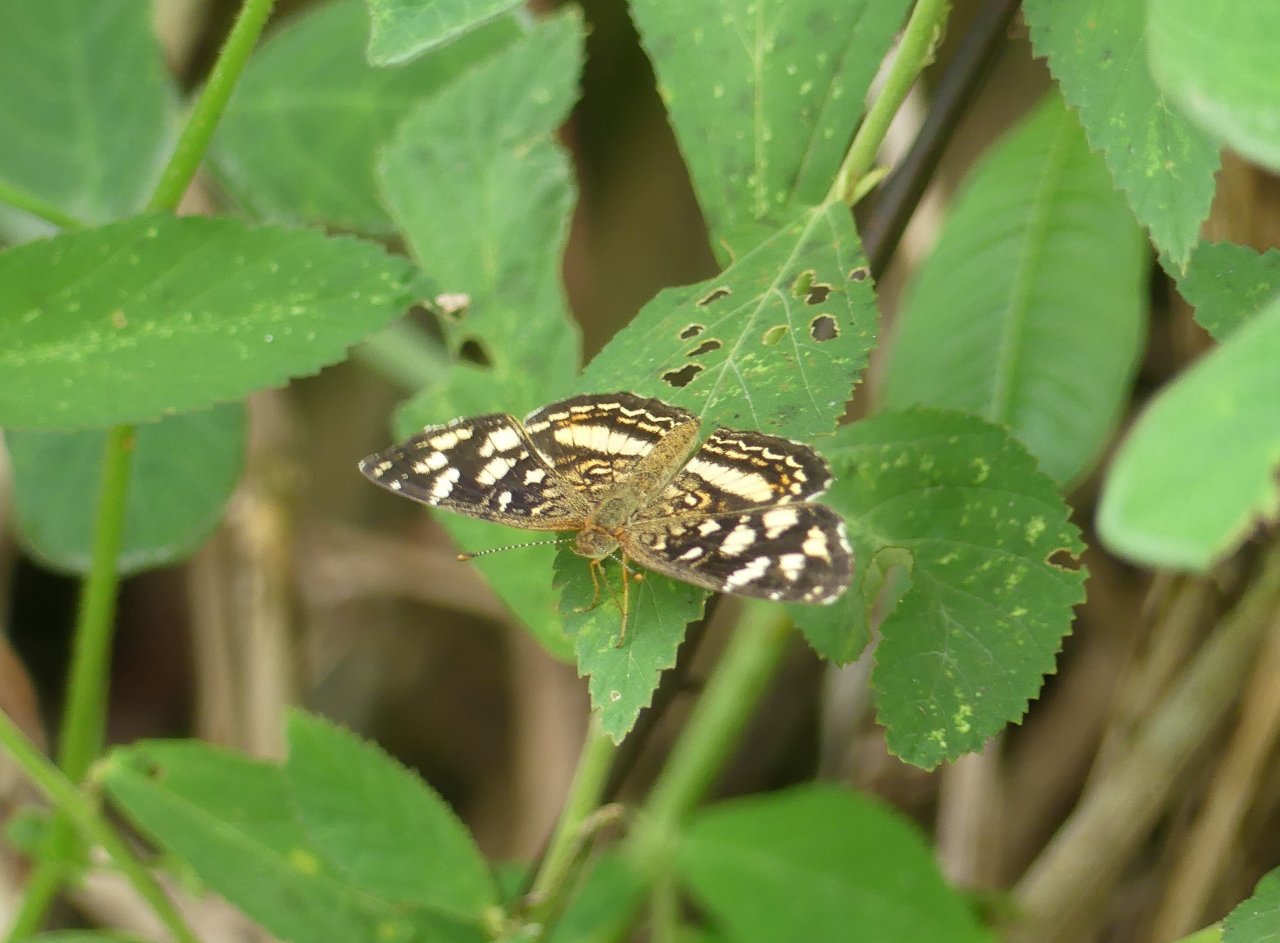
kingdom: Animalia
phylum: Arthropoda
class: Insecta
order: Lepidoptera
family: Nymphalidae
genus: Anthanassa
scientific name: Anthanassa drusilla
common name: Orange-patched Crescent
